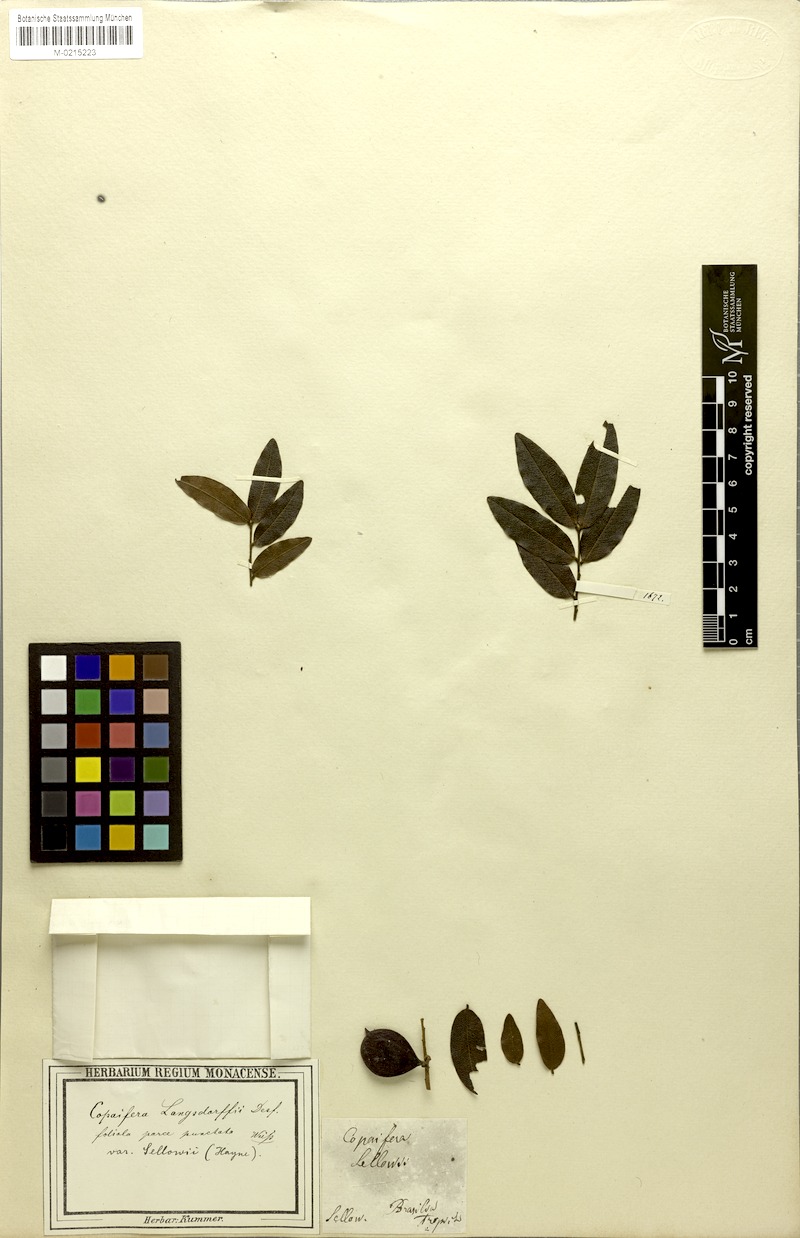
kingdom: Plantae
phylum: Tracheophyta
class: Magnoliopsida
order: Fabales
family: Fabaceae
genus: Copaifera
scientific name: Copaifera langsdorffii
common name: Brazilian diesel tree
